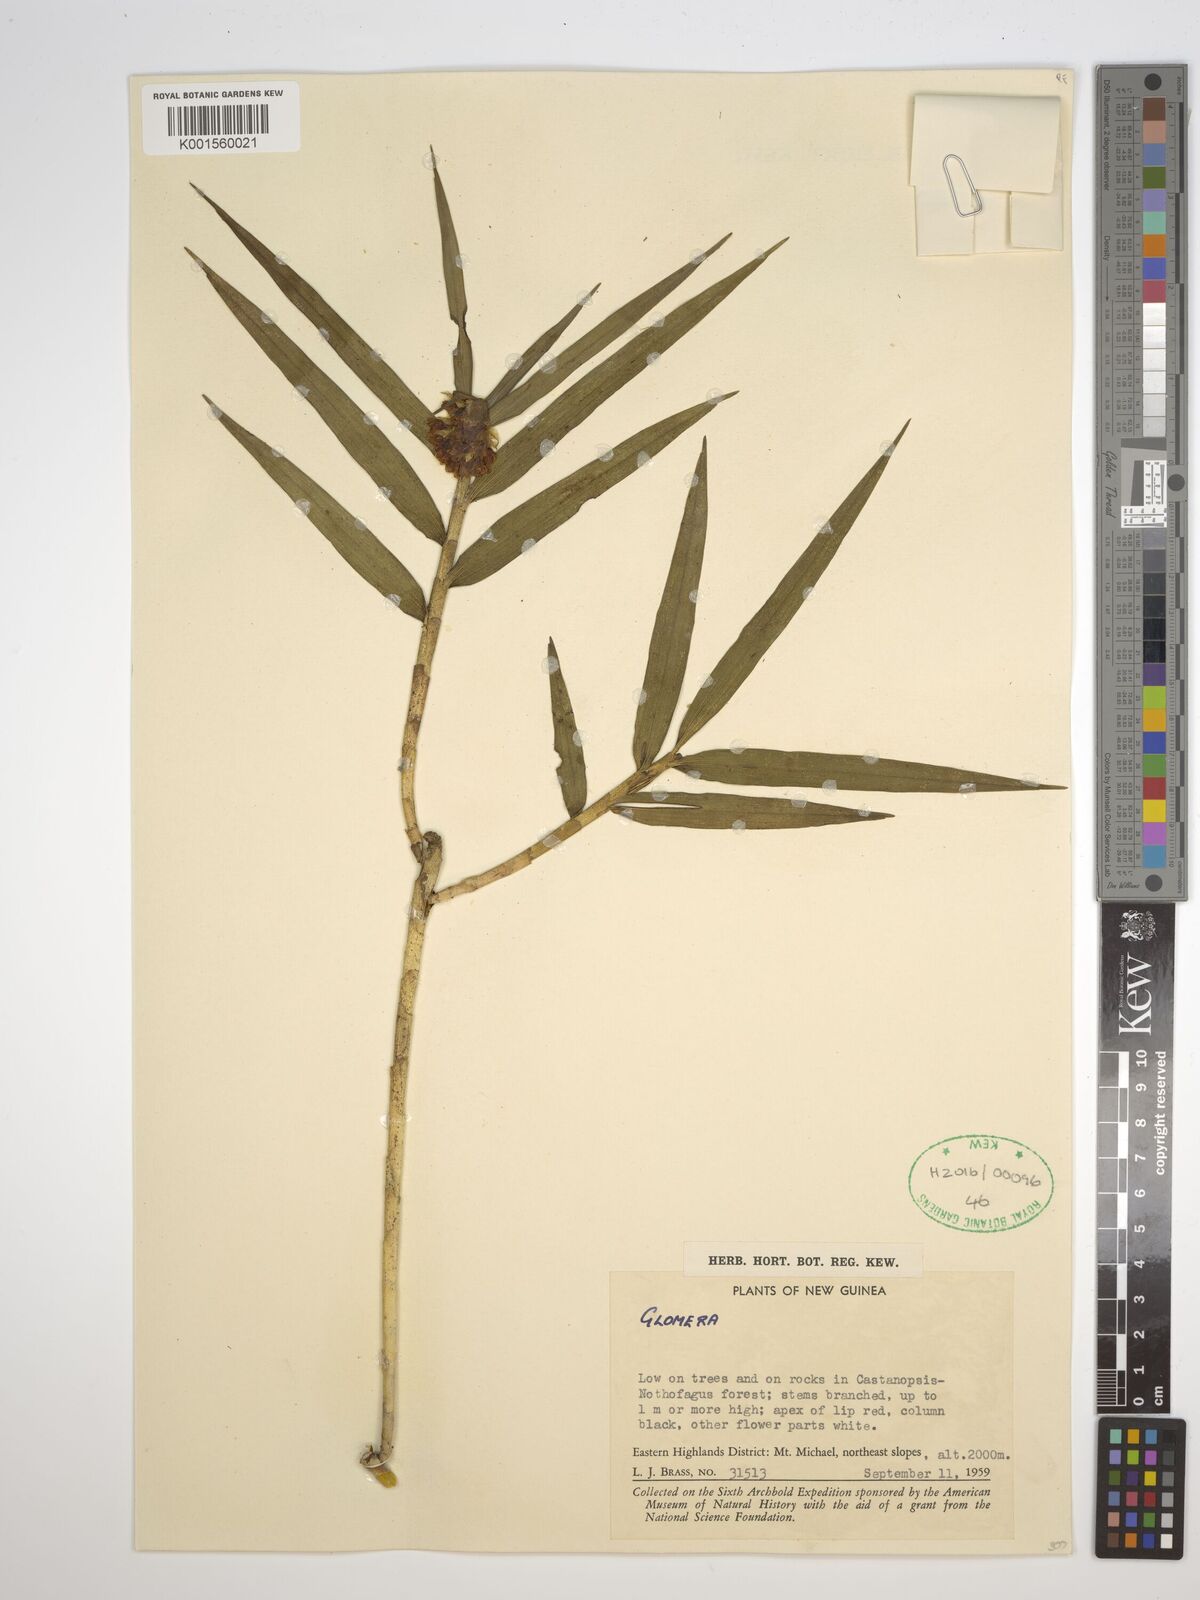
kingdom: Plantae
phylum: Tracheophyta
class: Liliopsida
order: Asparagales
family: Orchidaceae
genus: Glomera
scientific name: Glomera
